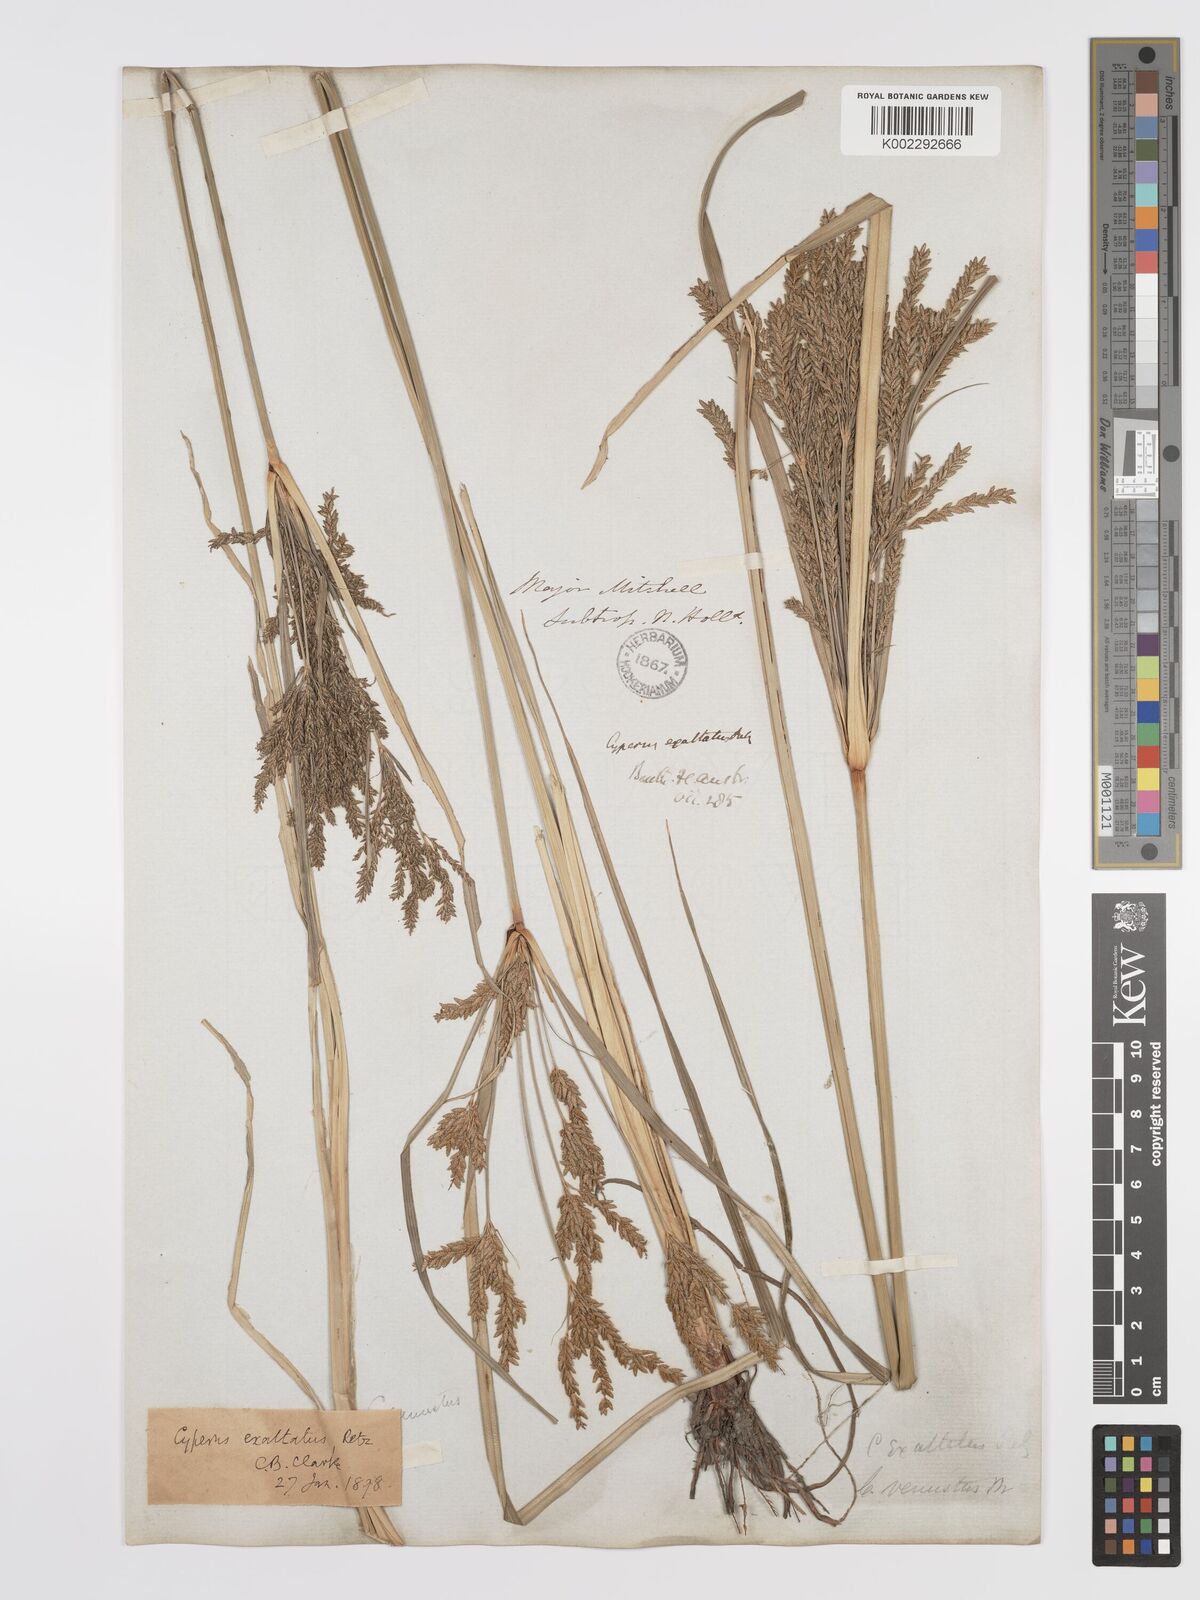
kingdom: Plantae
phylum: Tracheophyta
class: Liliopsida
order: Poales
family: Cyperaceae
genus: Cyperus
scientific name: Cyperus exaltatus
